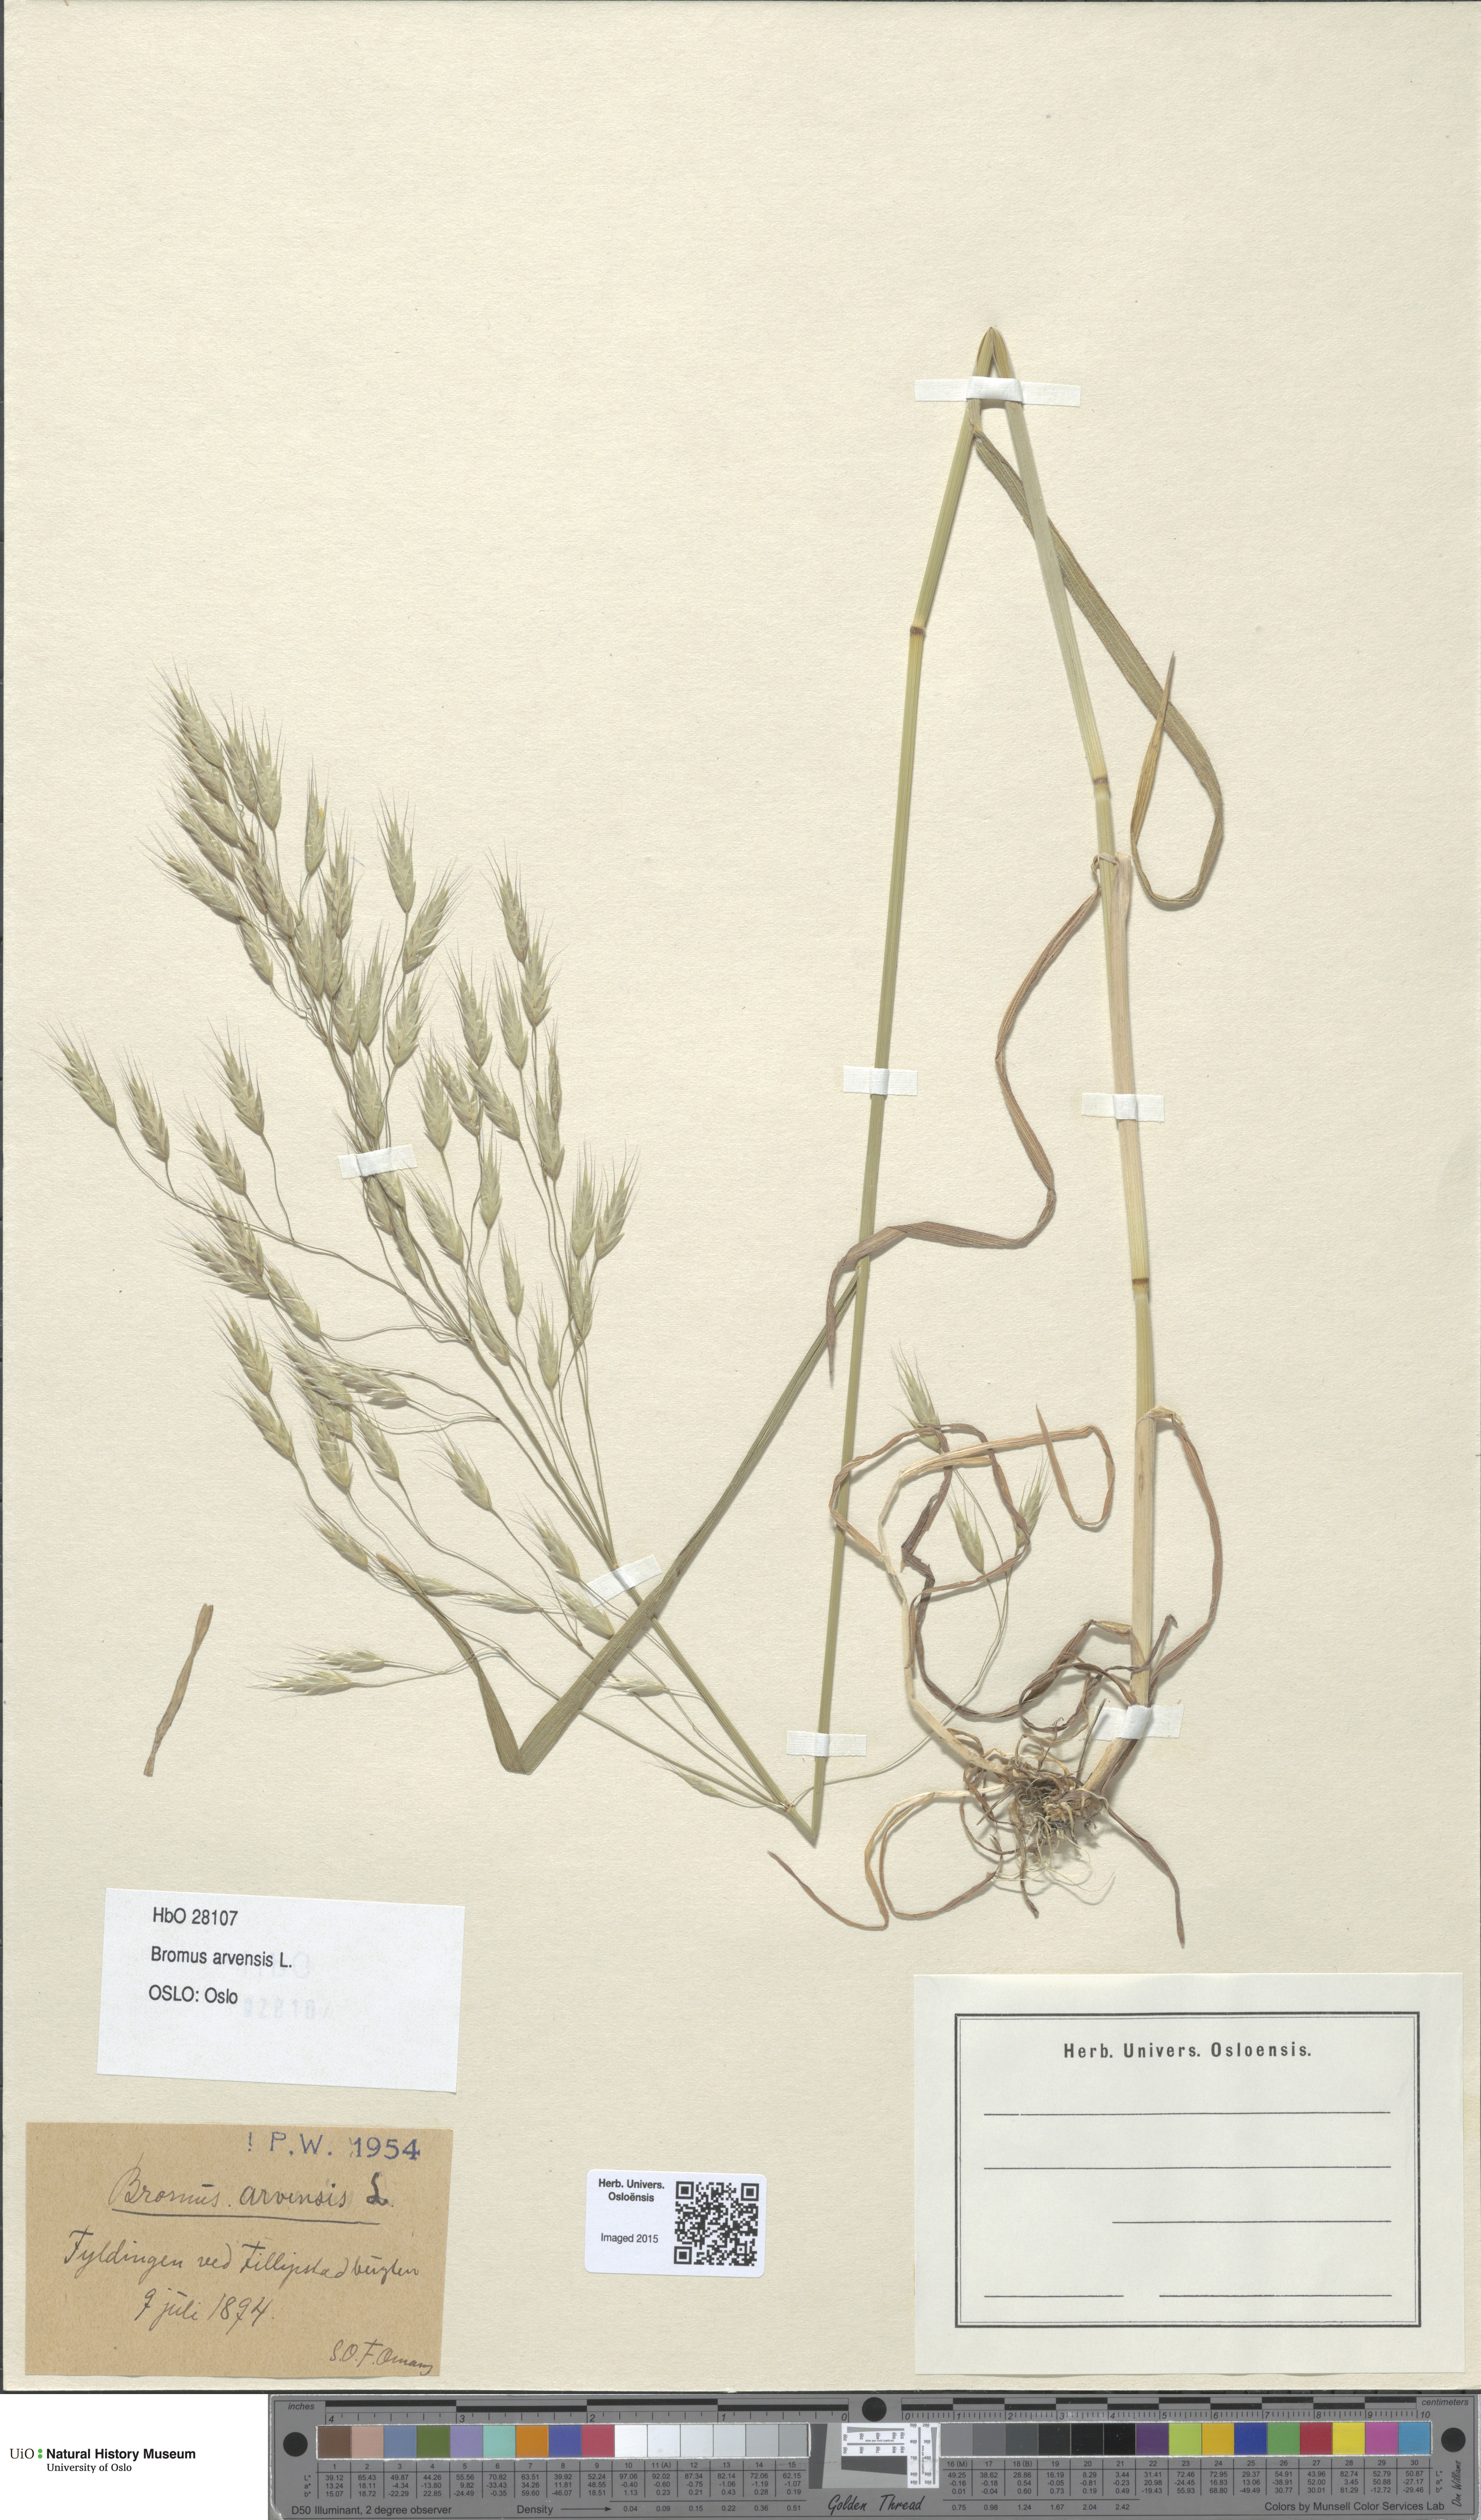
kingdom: Plantae
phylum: Tracheophyta
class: Liliopsida
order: Poales
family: Poaceae
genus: Bromus
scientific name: Bromus arvensis
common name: Field brome
